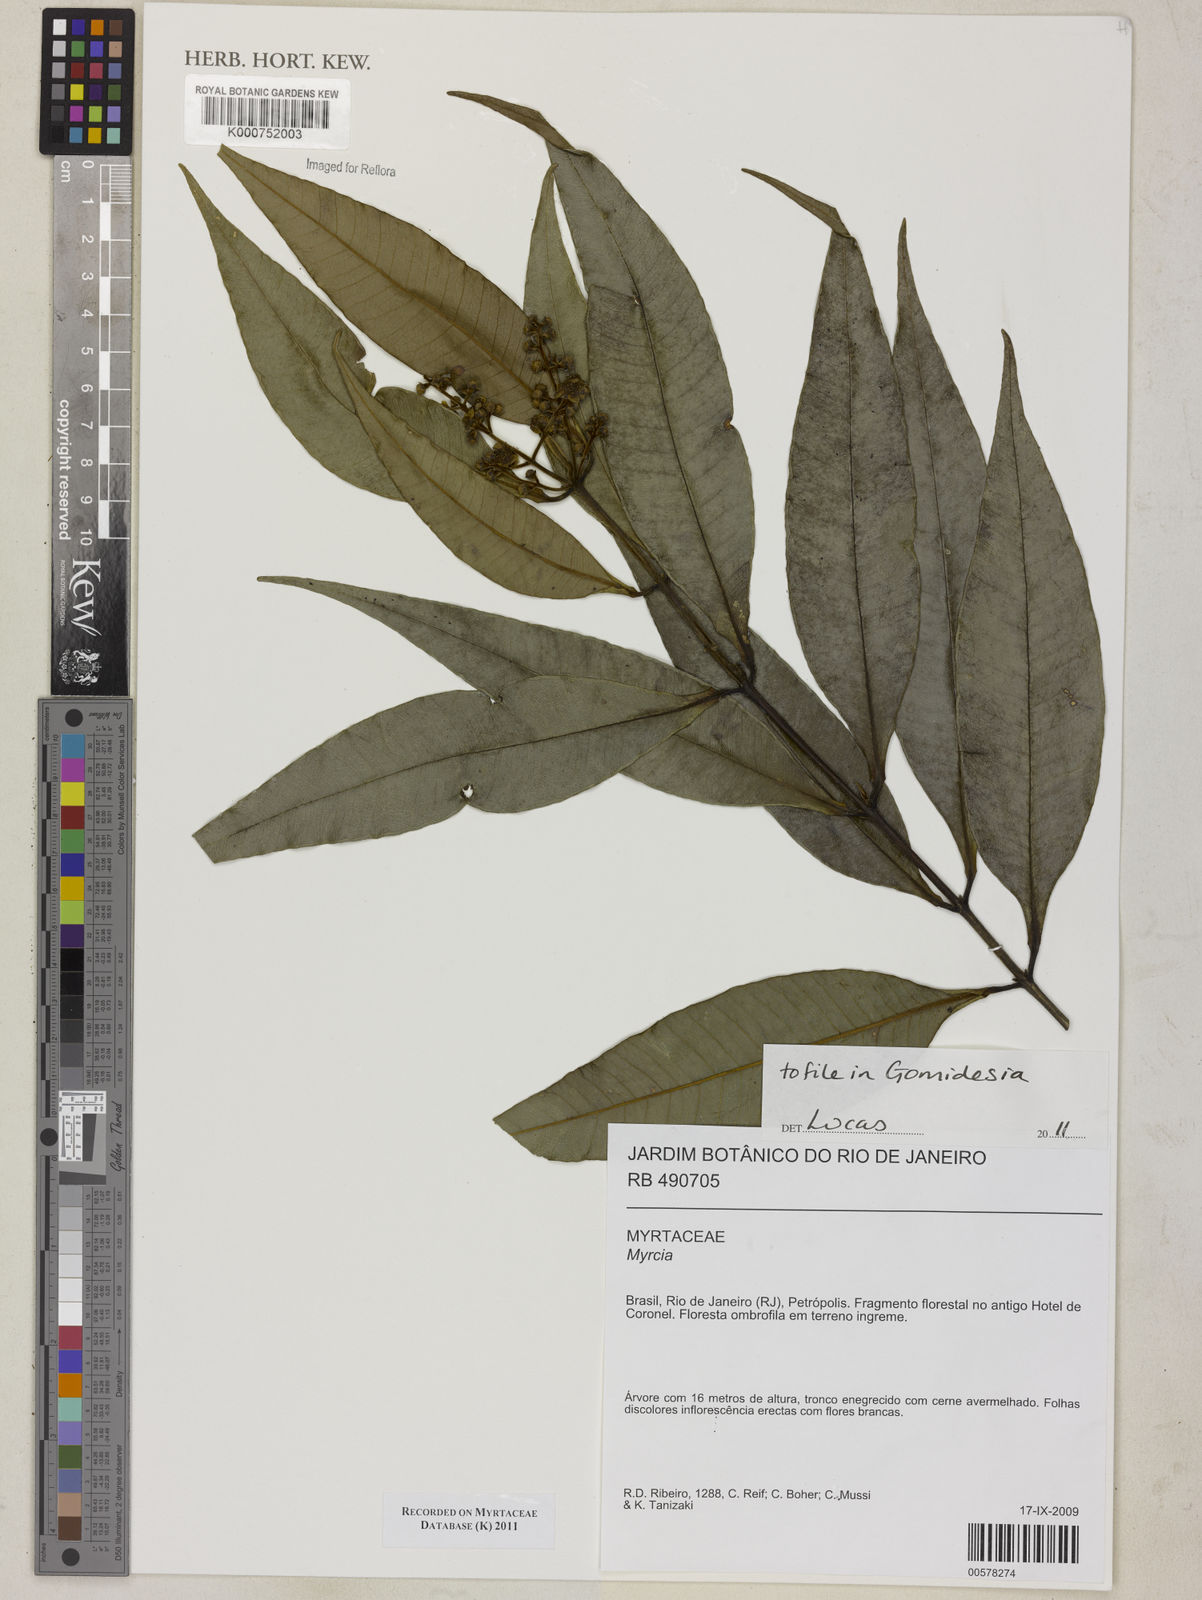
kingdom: Plantae
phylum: Tracheophyta
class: Magnoliopsida
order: Myrtales
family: Myrtaceae
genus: Myrcia
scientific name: Myrcia splendens
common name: Surinam cherry
